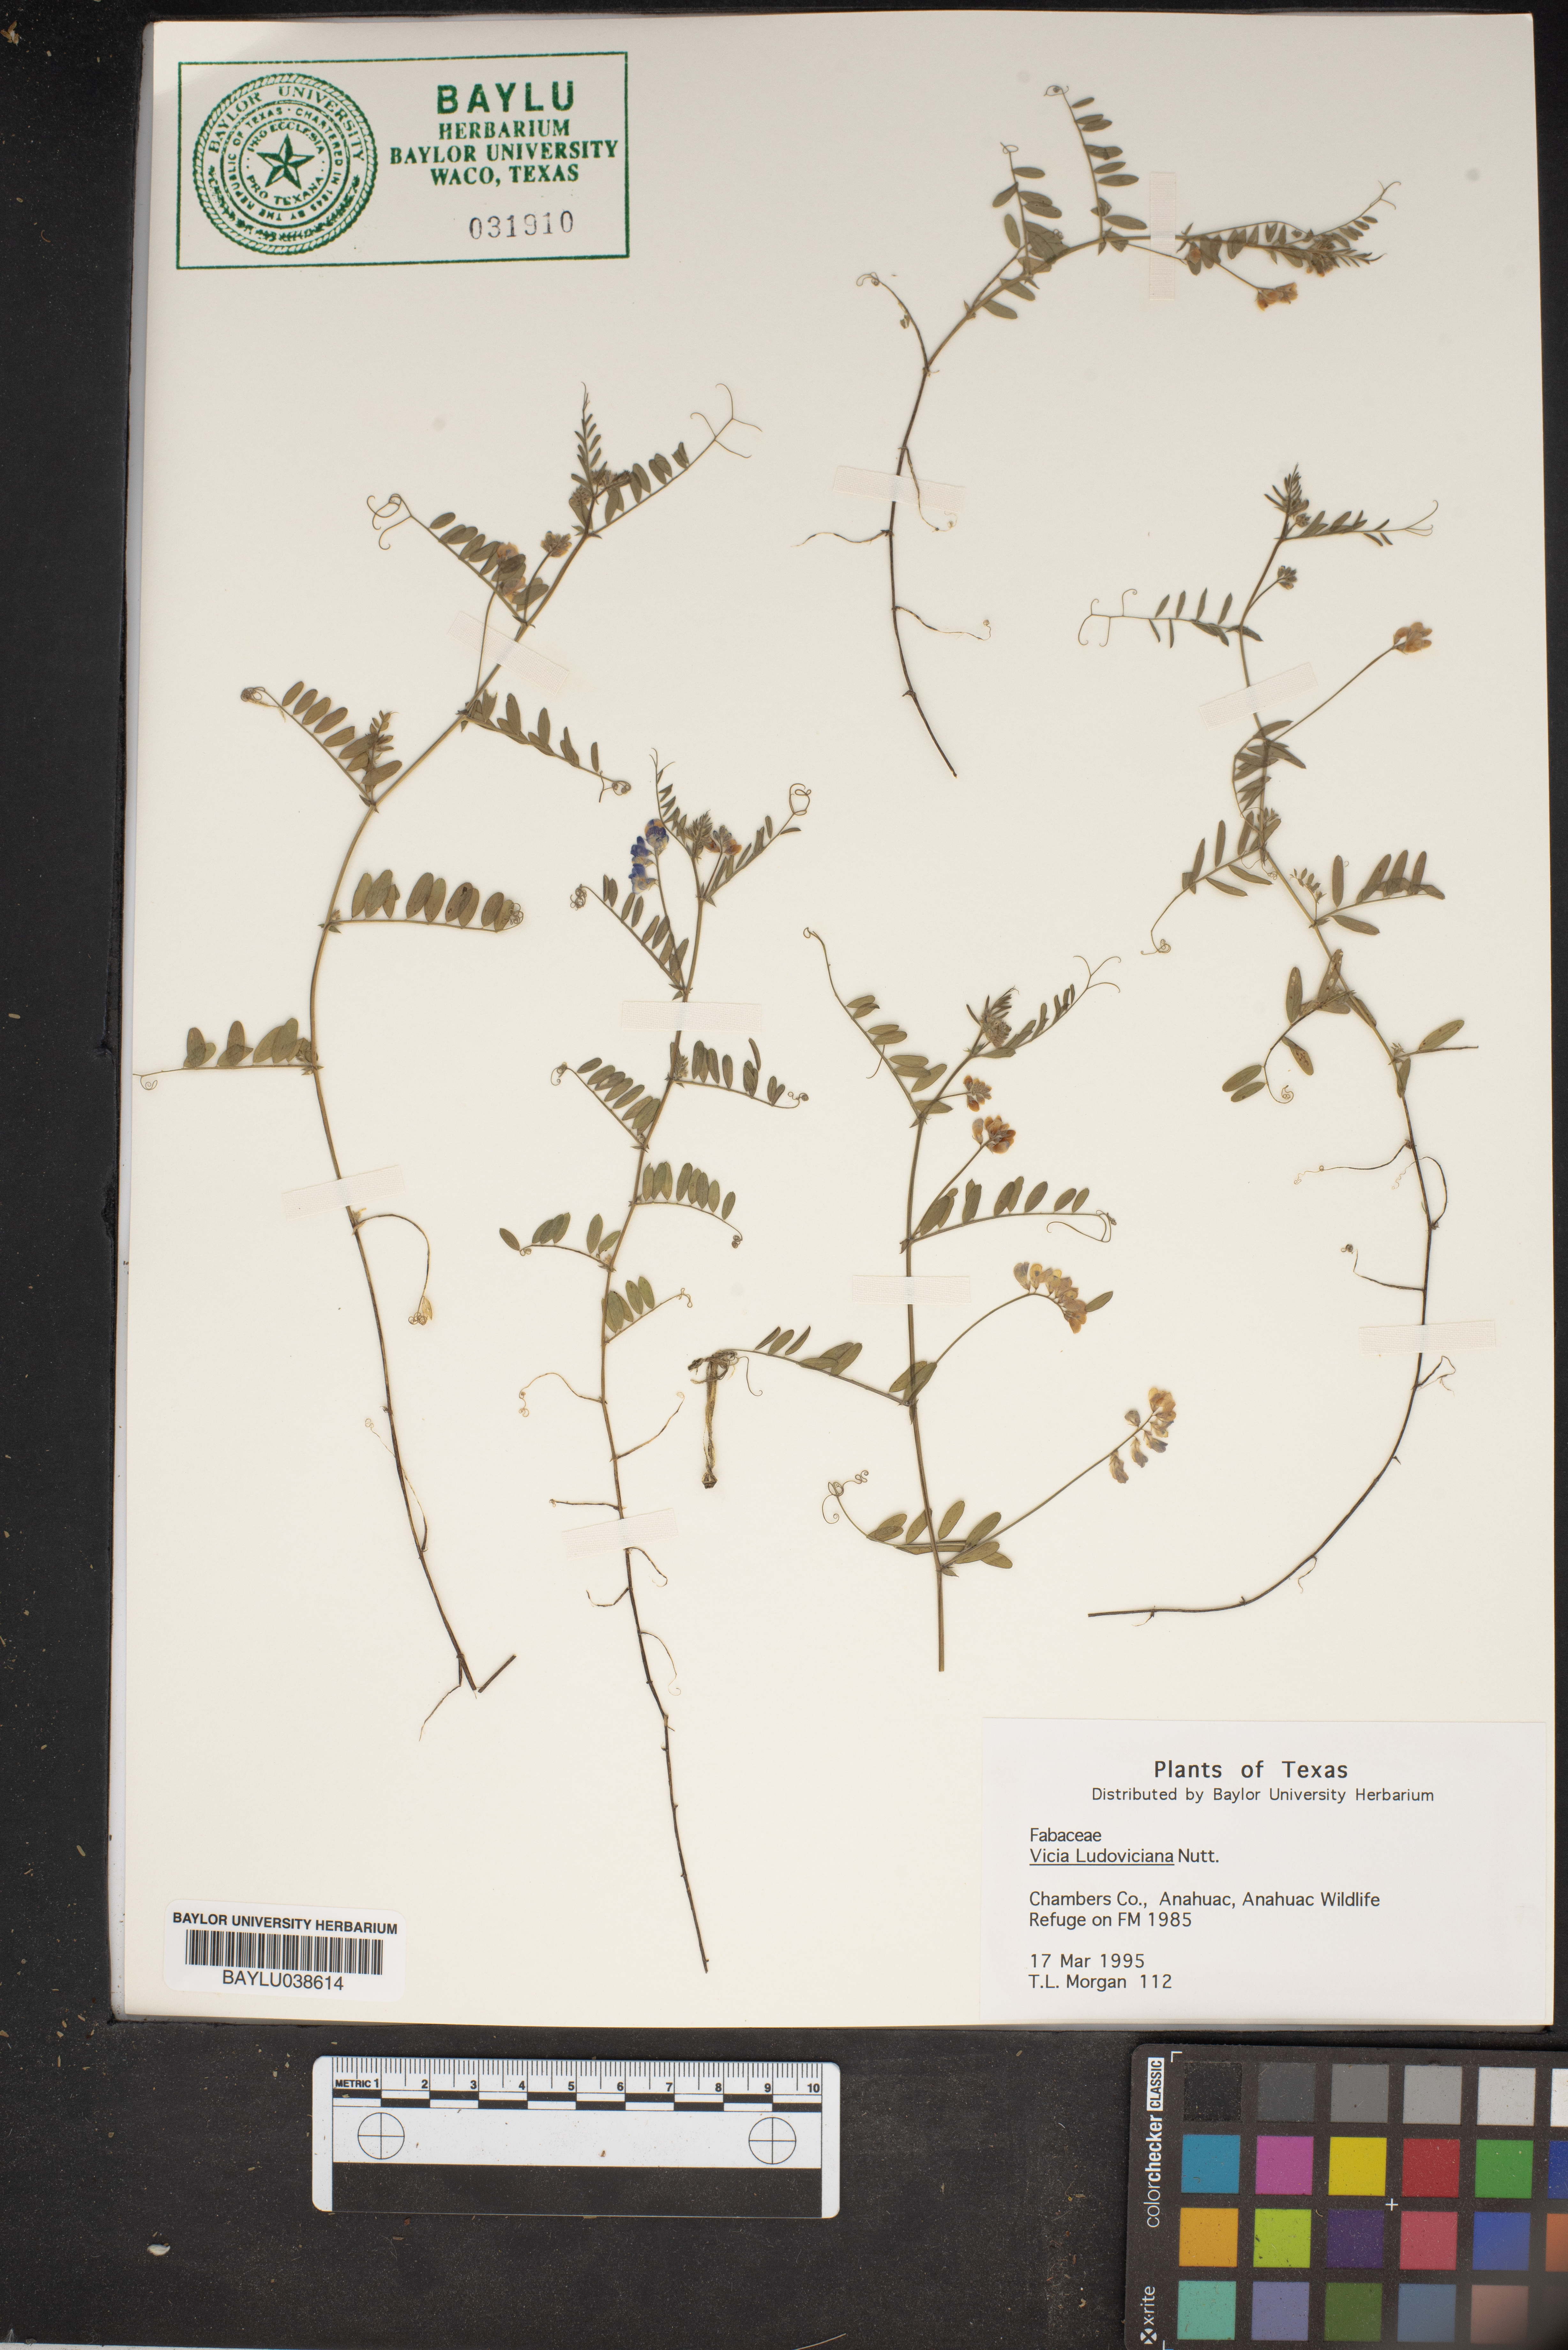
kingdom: Plantae
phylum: Tracheophyta
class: Magnoliopsida
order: Fabales
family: Fabaceae
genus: Vicia
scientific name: Vicia ludoviciana
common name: Louisiana vetch
